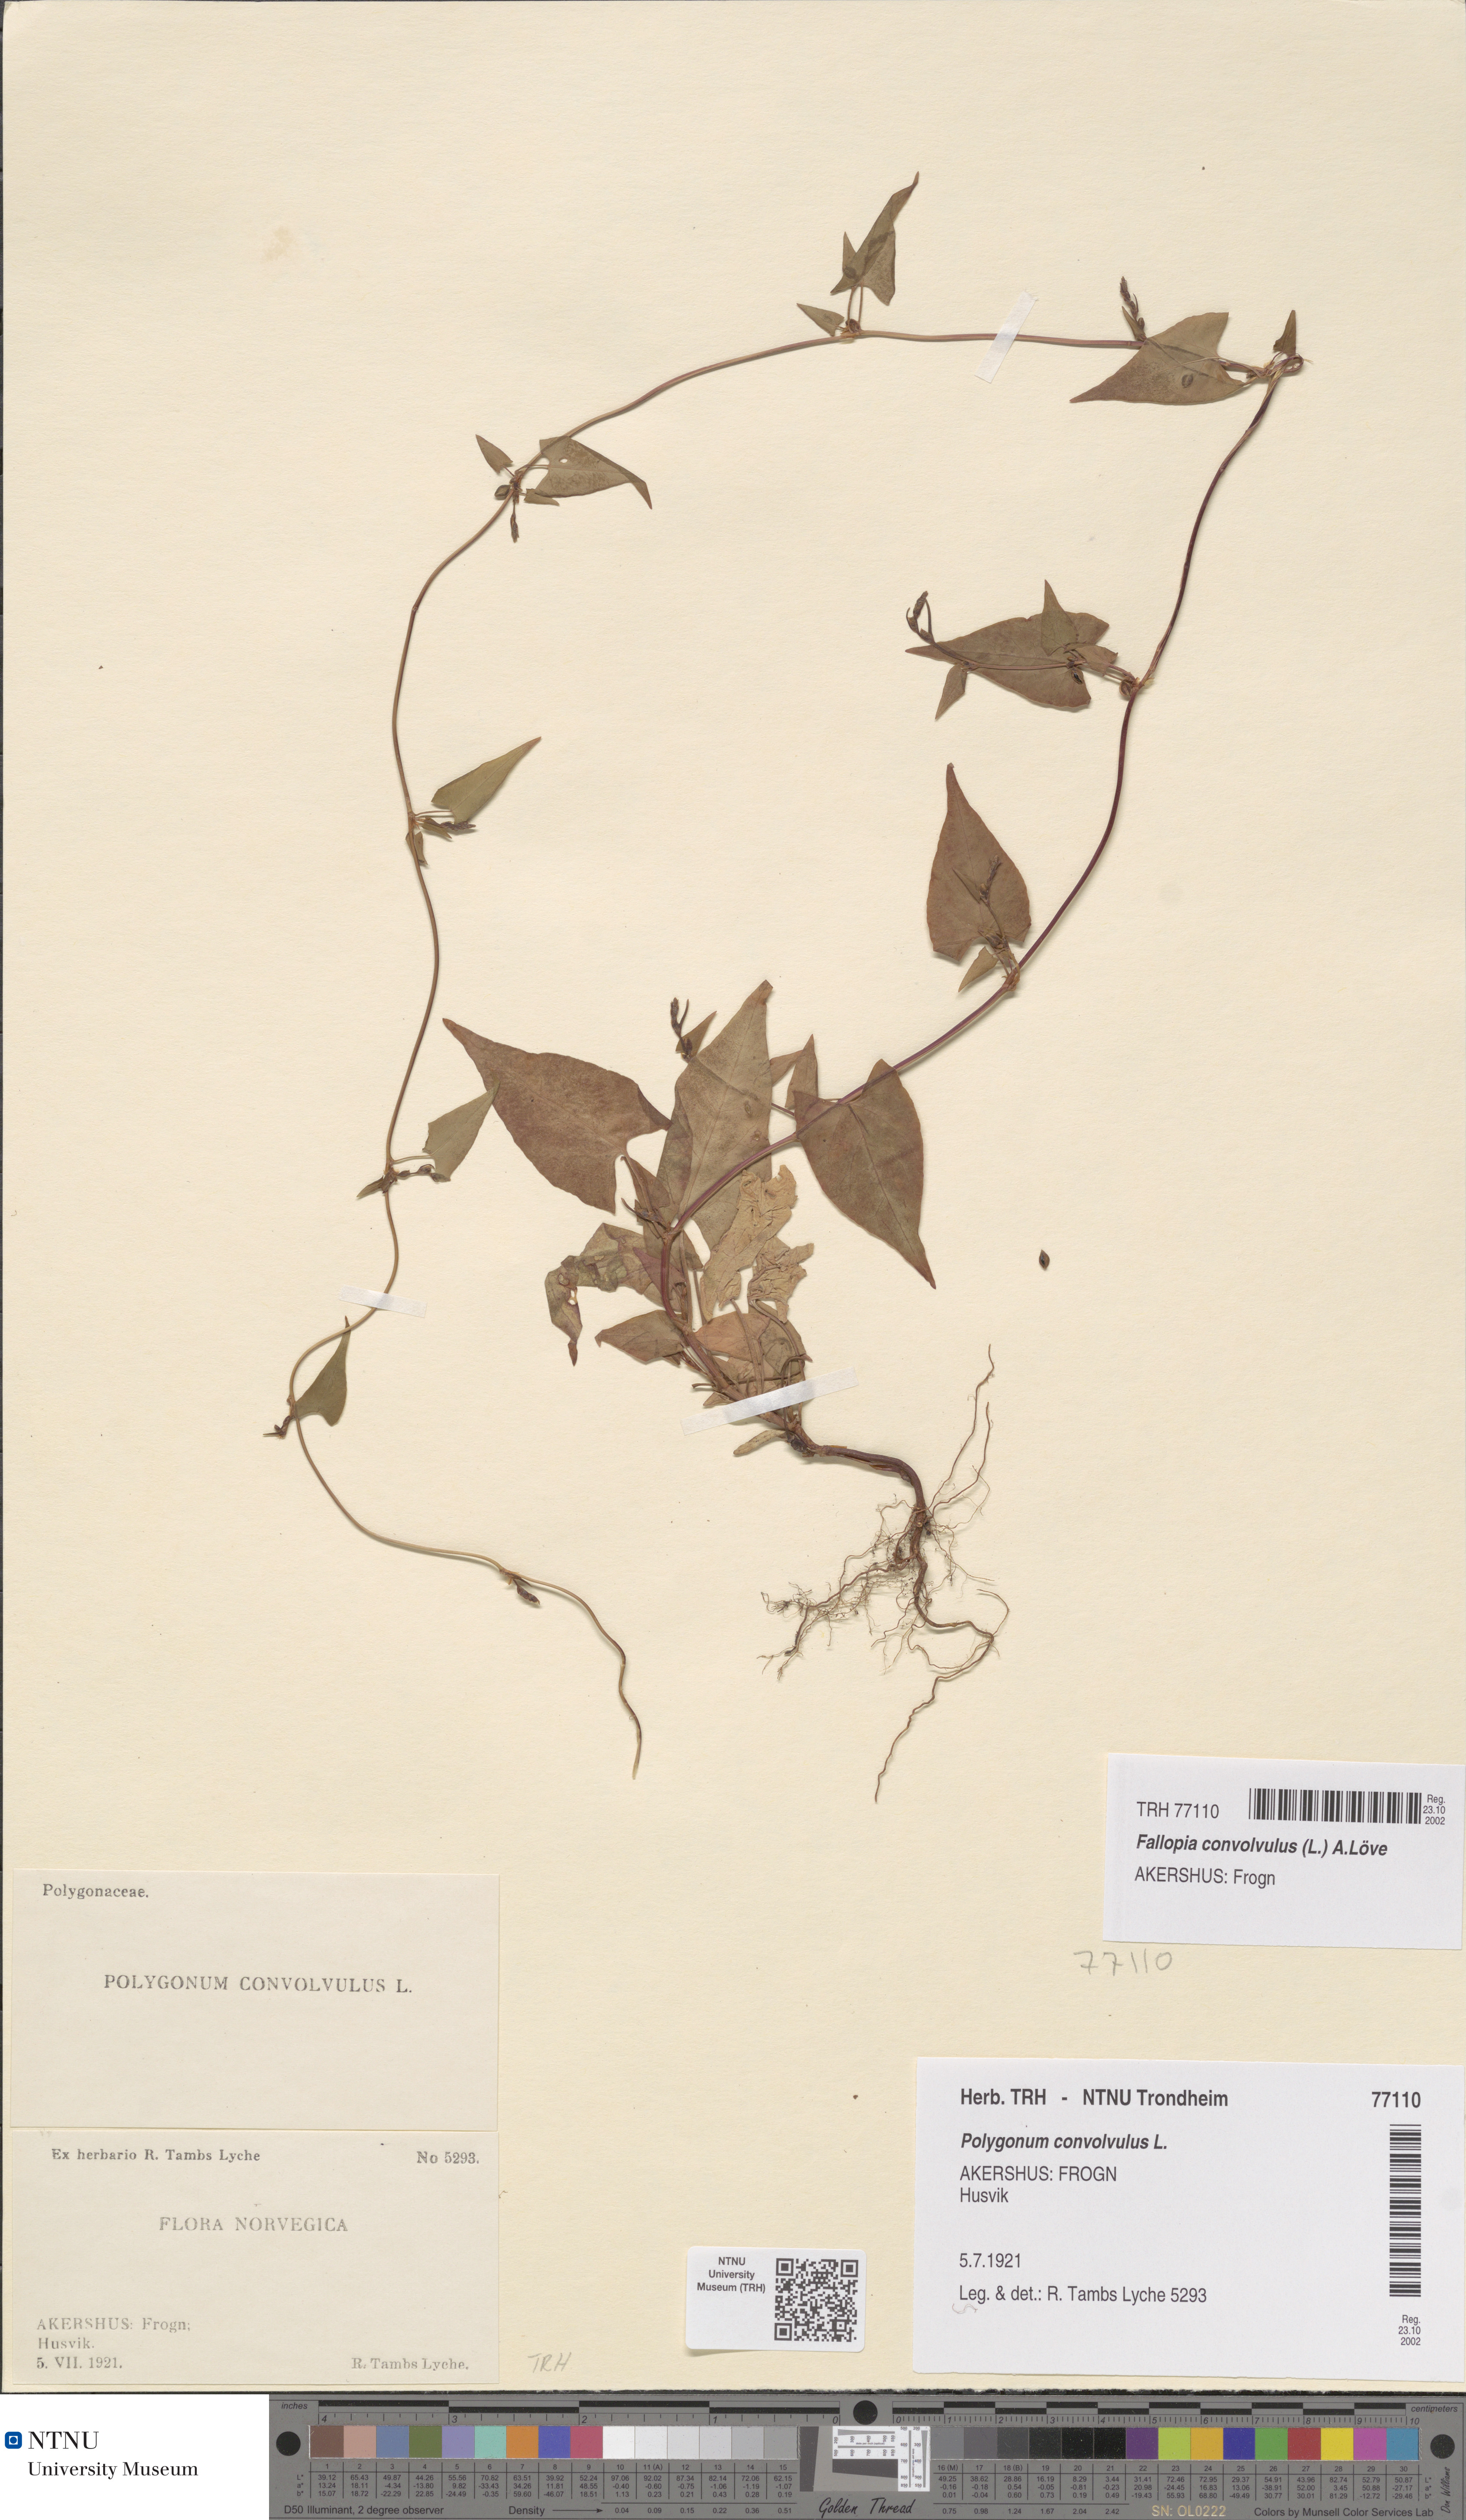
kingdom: Plantae
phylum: Tracheophyta
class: Magnoliopsida
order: Caryophyllales
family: Polygonaceae
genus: Fallopia
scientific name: Fallopia convolvulus
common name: Black bindweed
